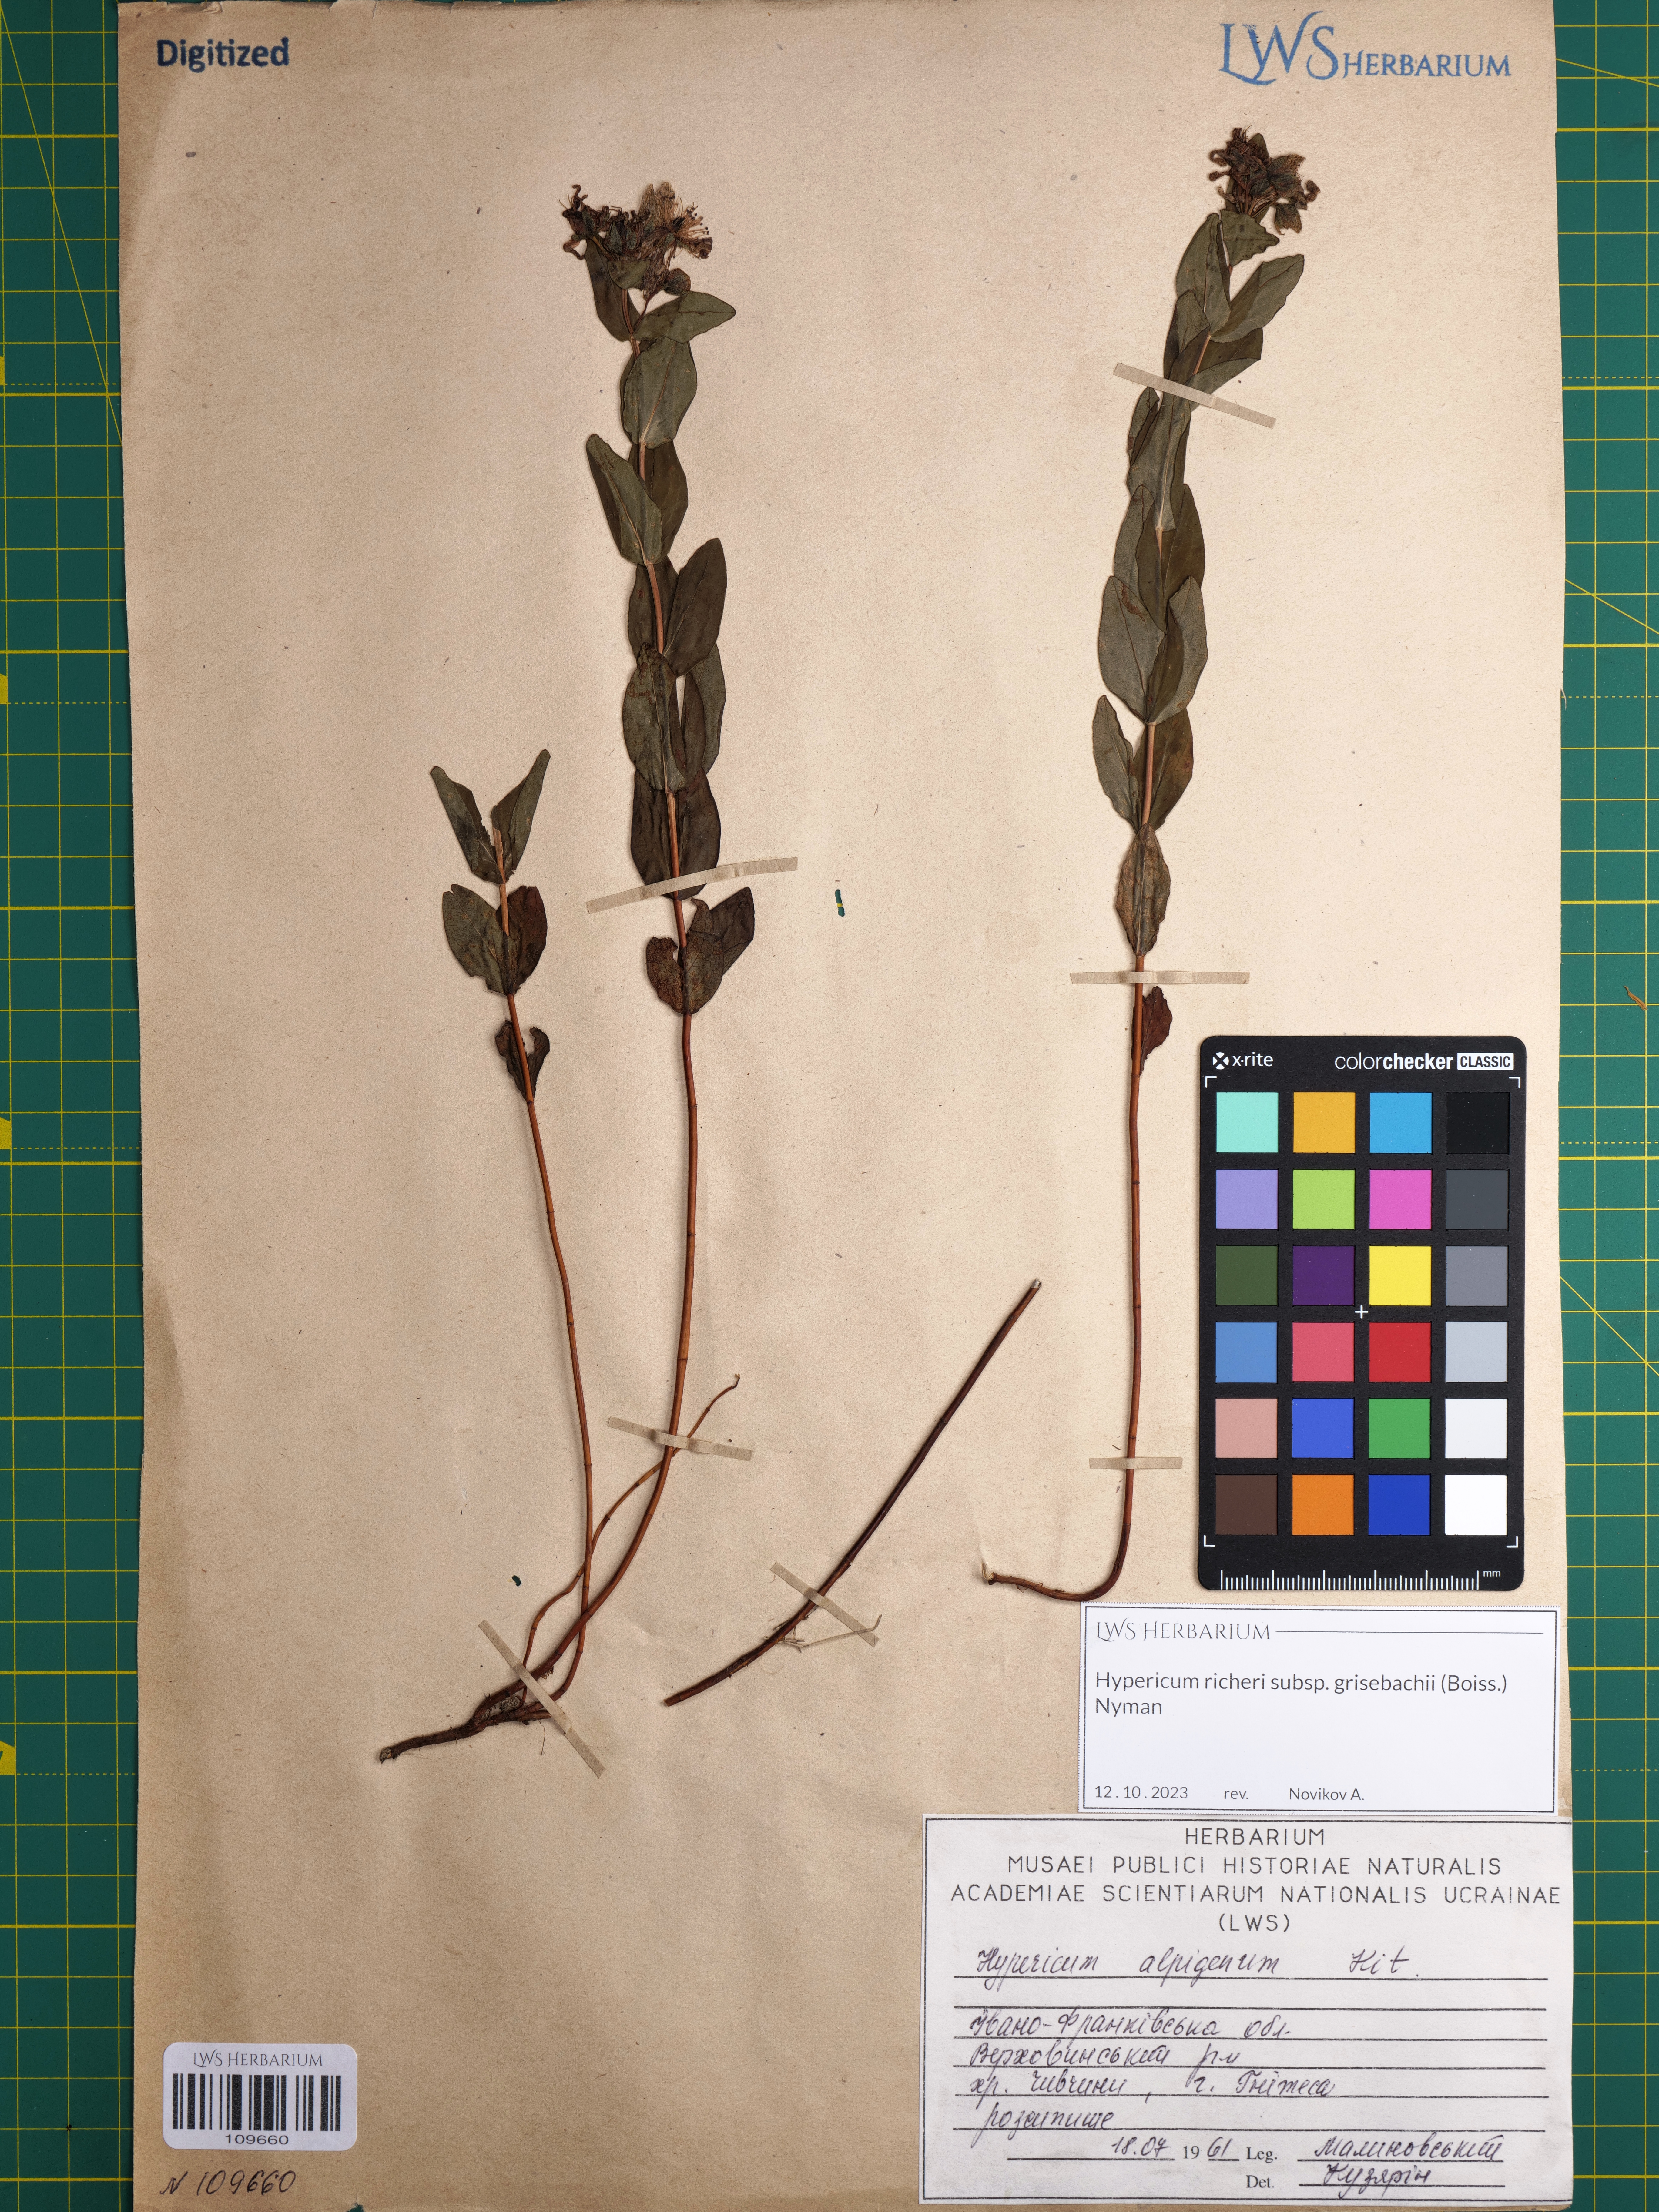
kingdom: Plantae
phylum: Tracheophyta
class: Magnoliopsida
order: Malpighiales
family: Hypericaceae
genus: Hypericum
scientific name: Hypericum richeri
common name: Alpine st john's-wort
